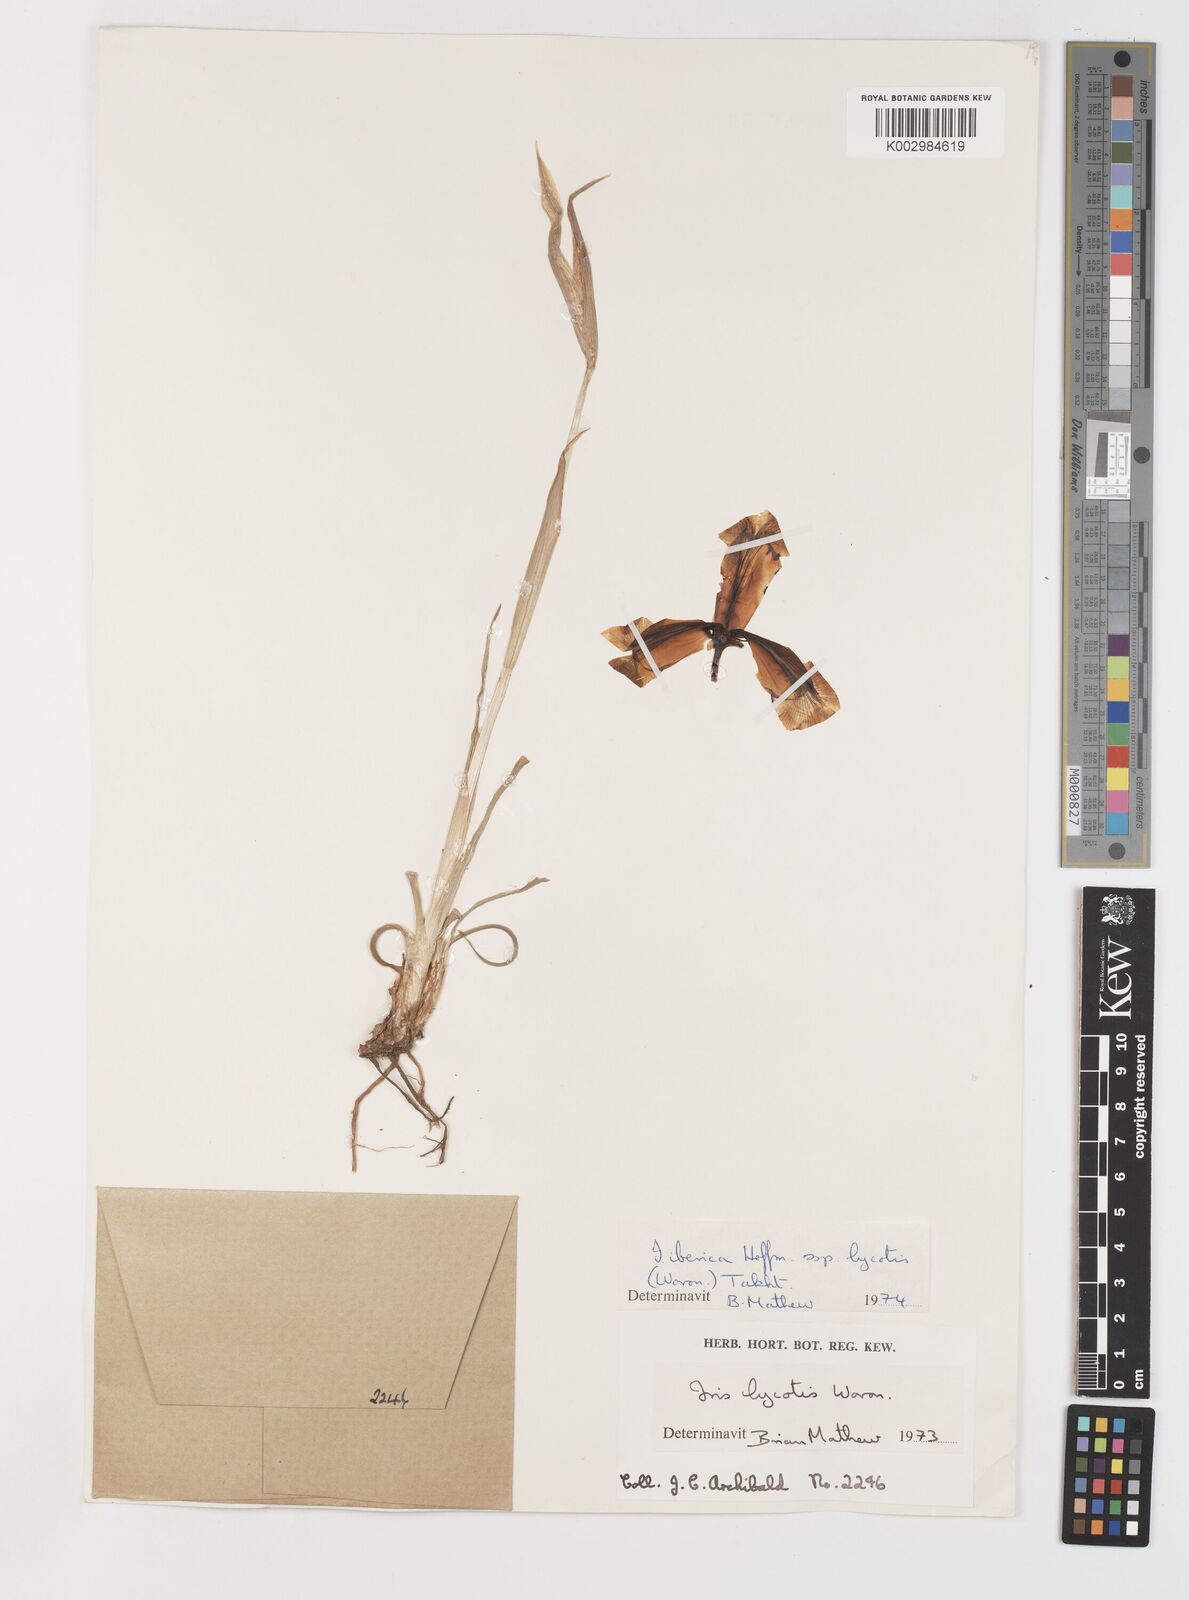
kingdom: Plantae
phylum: Tracheophyta
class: Liliopsida
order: Asparagales
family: Iridaceae
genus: Iris
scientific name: Iris lycotis
